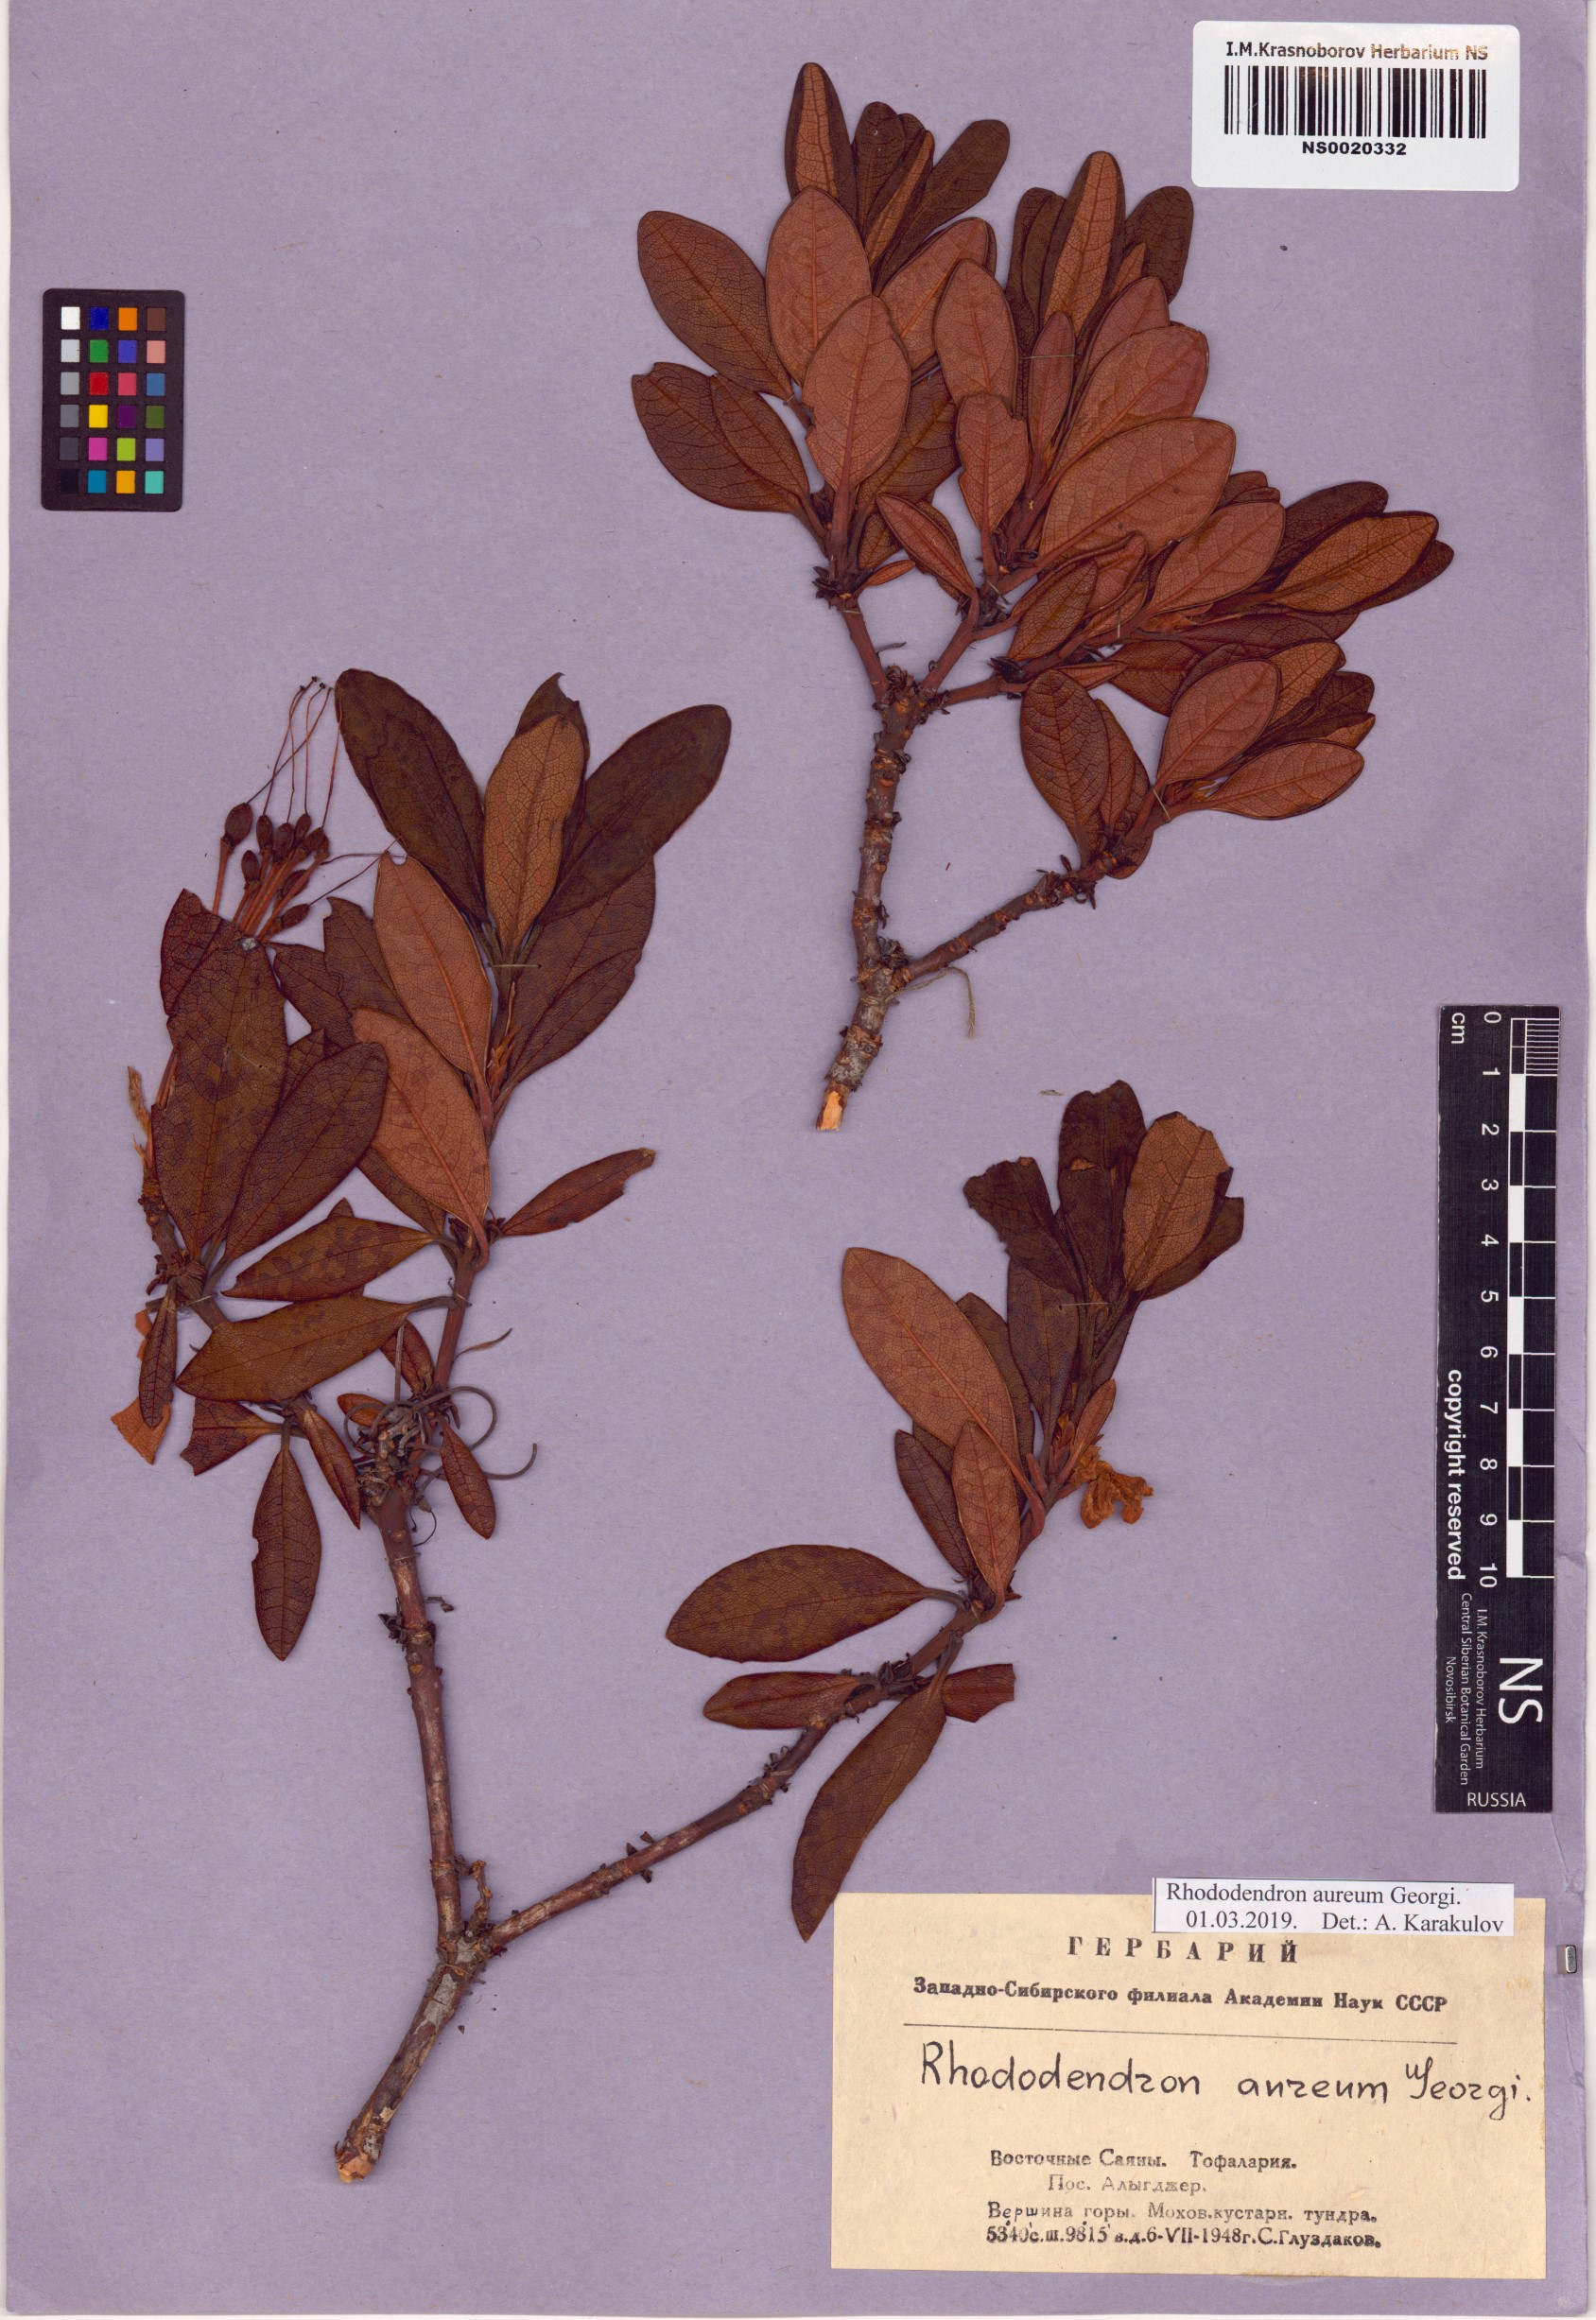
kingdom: Plantae
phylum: Tracheophyta
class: Magnoliopsida
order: Ericales
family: Ericaceae
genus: Rhododendron
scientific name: Rhododendron aureum
